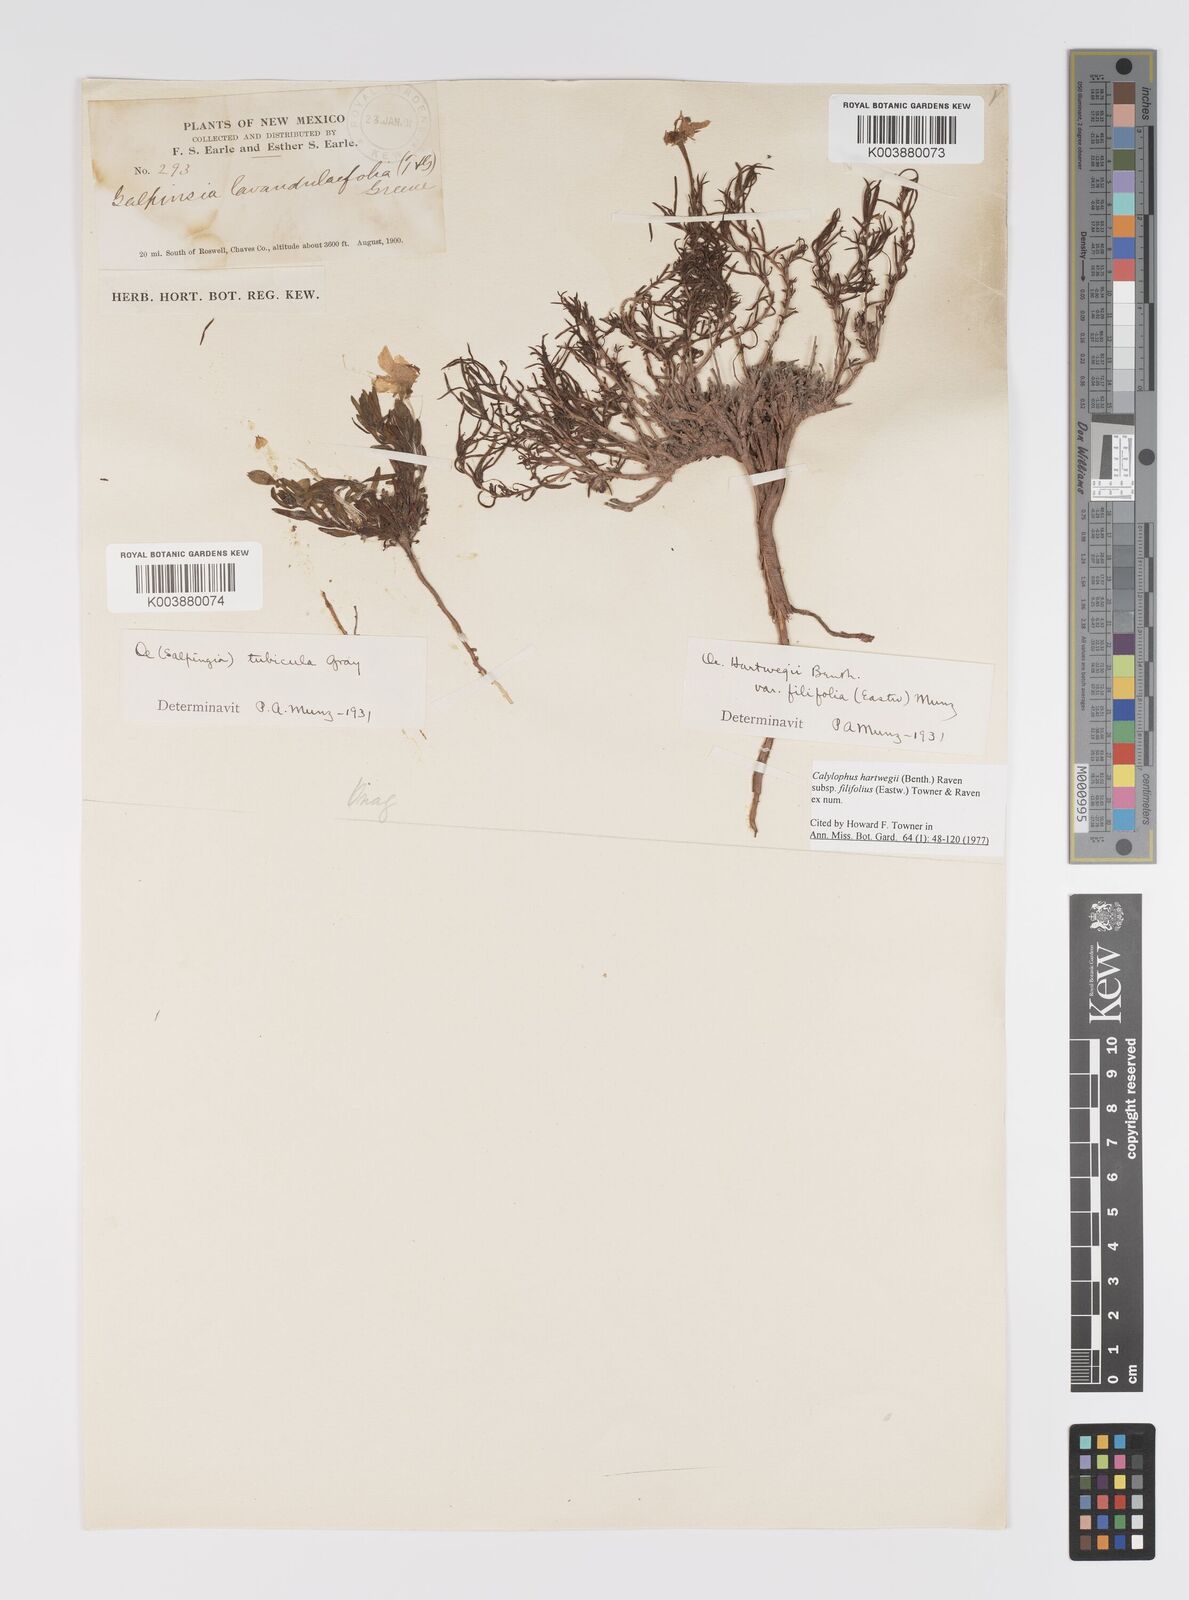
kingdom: Plantae
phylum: Tracheophyta
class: Magnoliopsida
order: Myrtales
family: Onagraceae
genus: Oenothera
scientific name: Oenothera hartwegii
